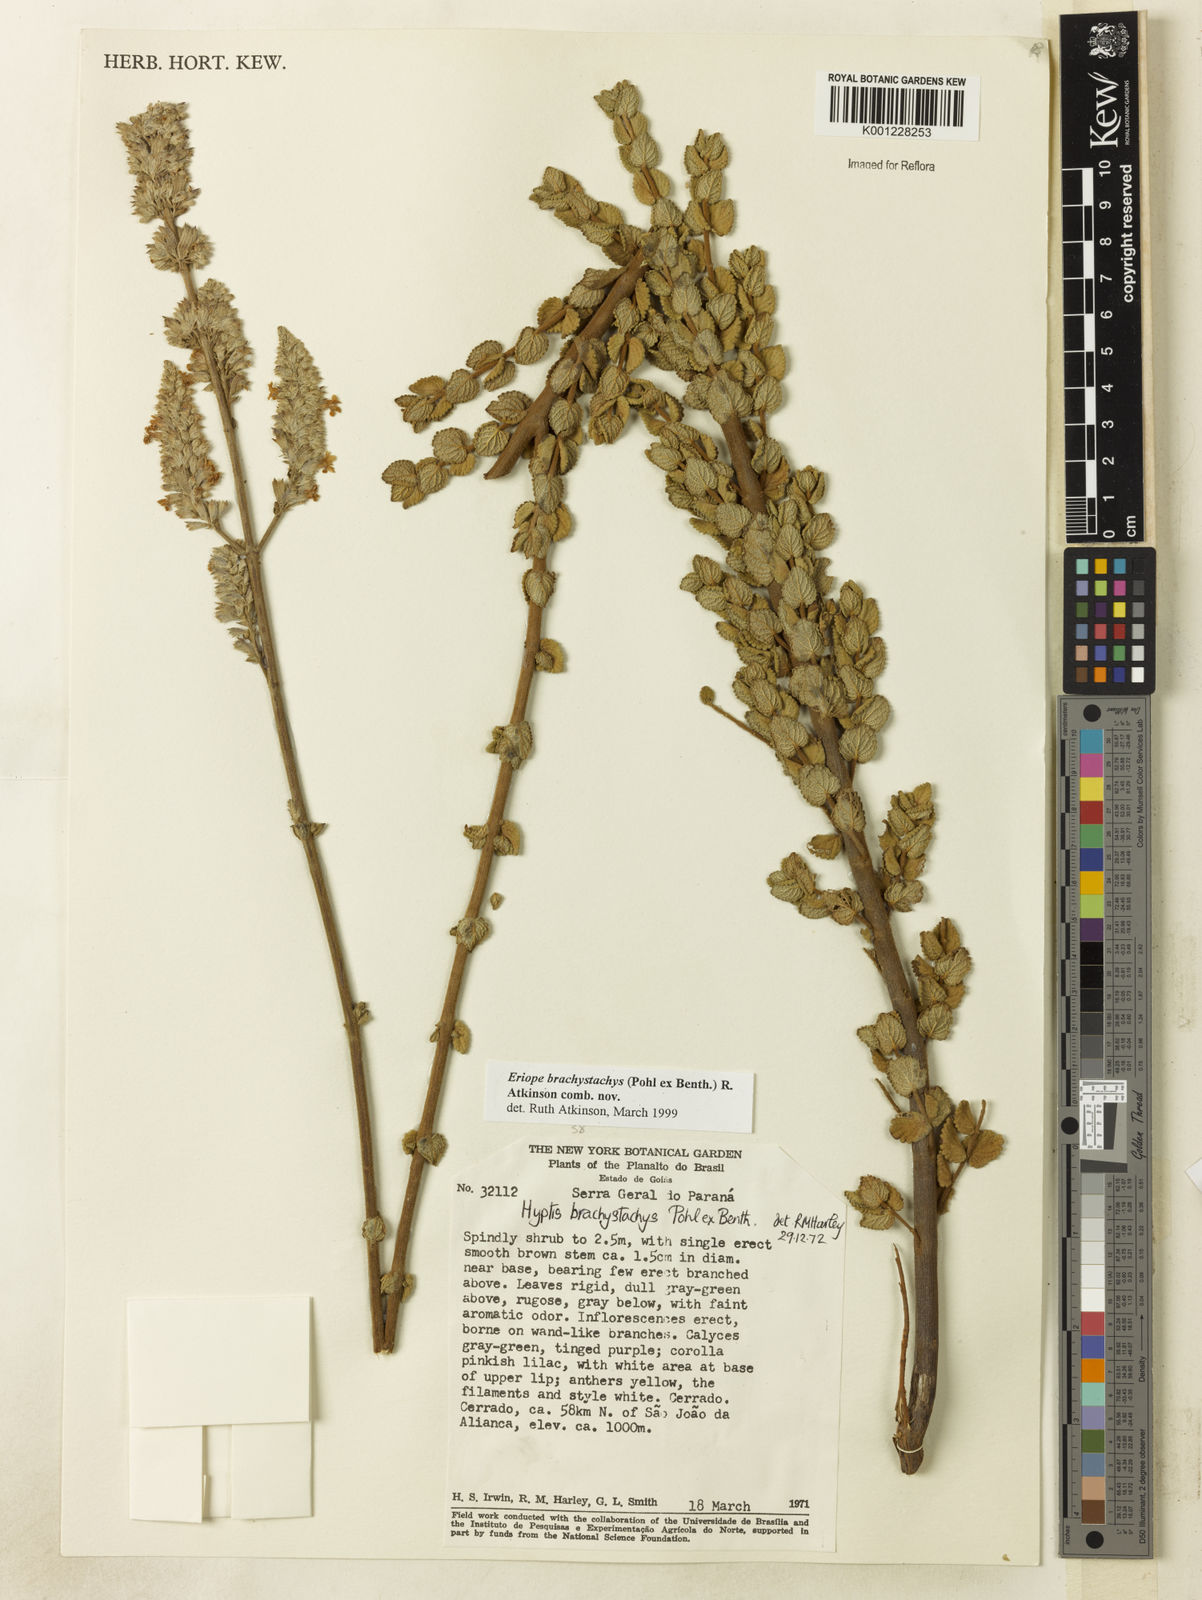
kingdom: Plantae
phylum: Tracheophyta
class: Magnoliopsida
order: Lamiales
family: Lamiaceae
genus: Hypenia
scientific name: Hypenia brachystachys
